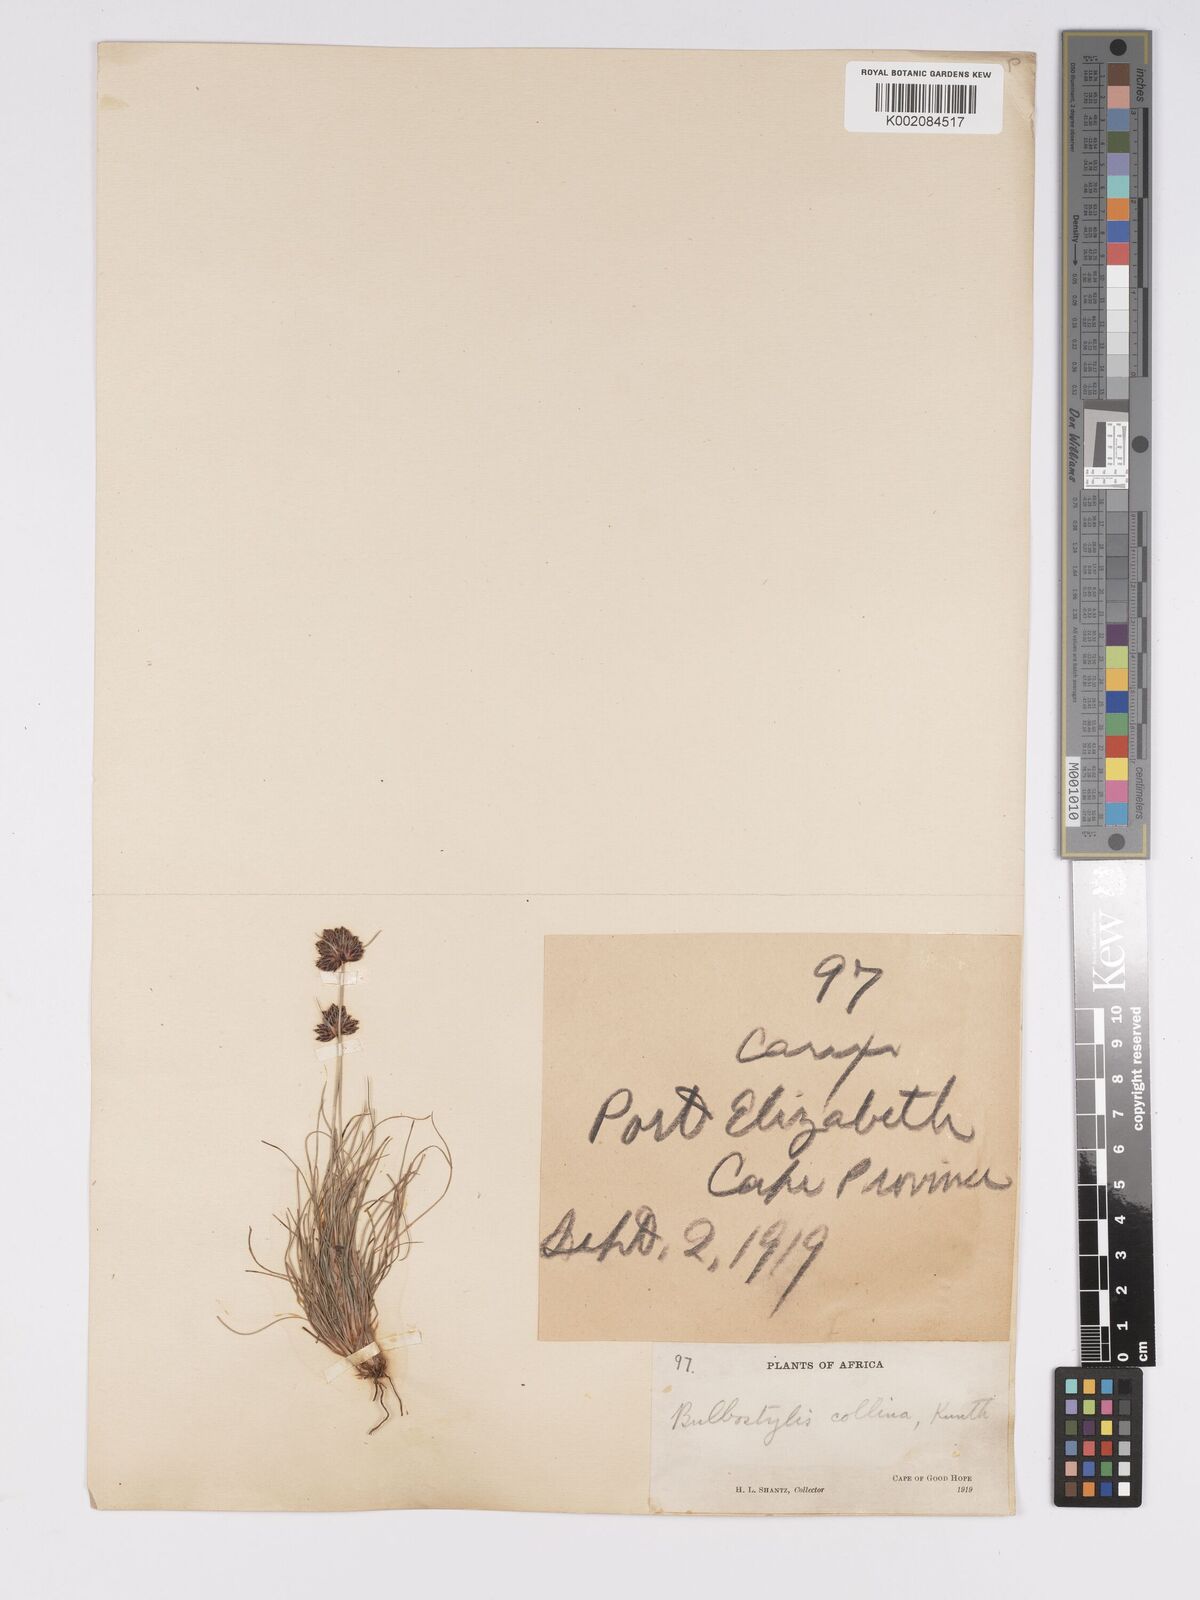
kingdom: Plantae
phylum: Tracheophyta
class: Liliopsida
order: Poales
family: Cyperaceae
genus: Bulbostylis
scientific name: Bulbostylis contexta
